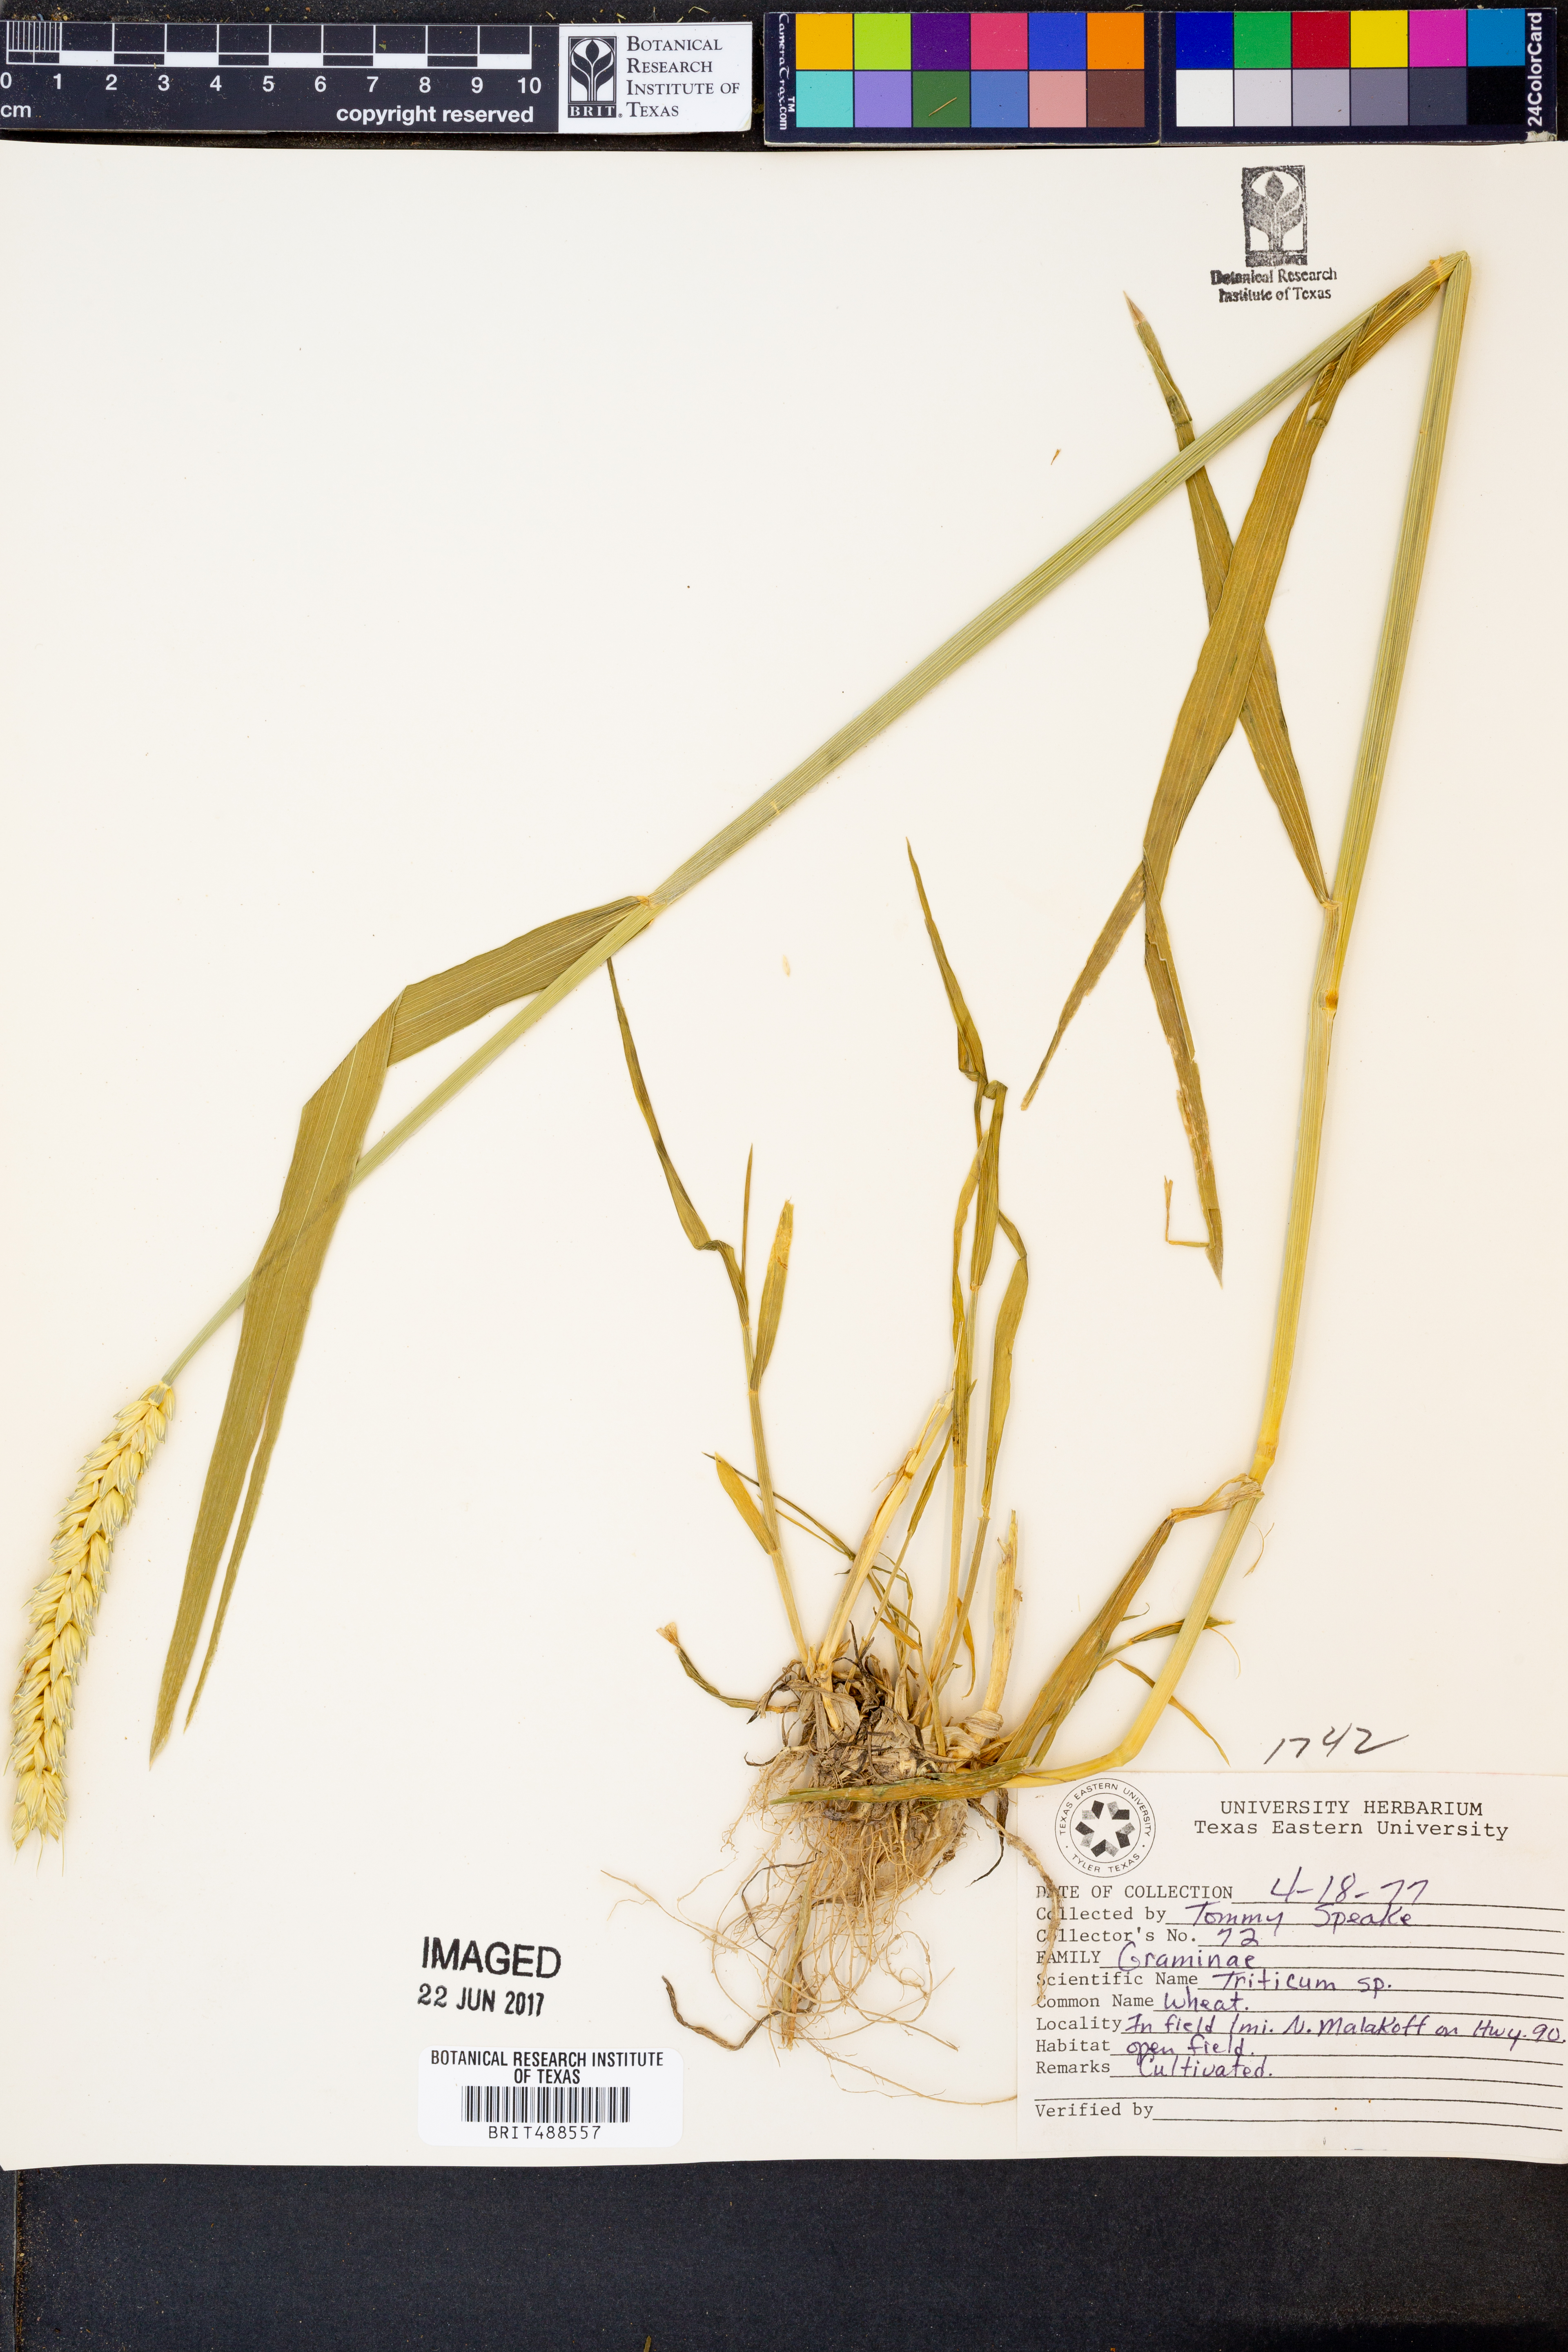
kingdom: Plantae
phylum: Tracheophyta
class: Liliopsida
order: Poales
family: Poaceae
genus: Triticum
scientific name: Triticum
